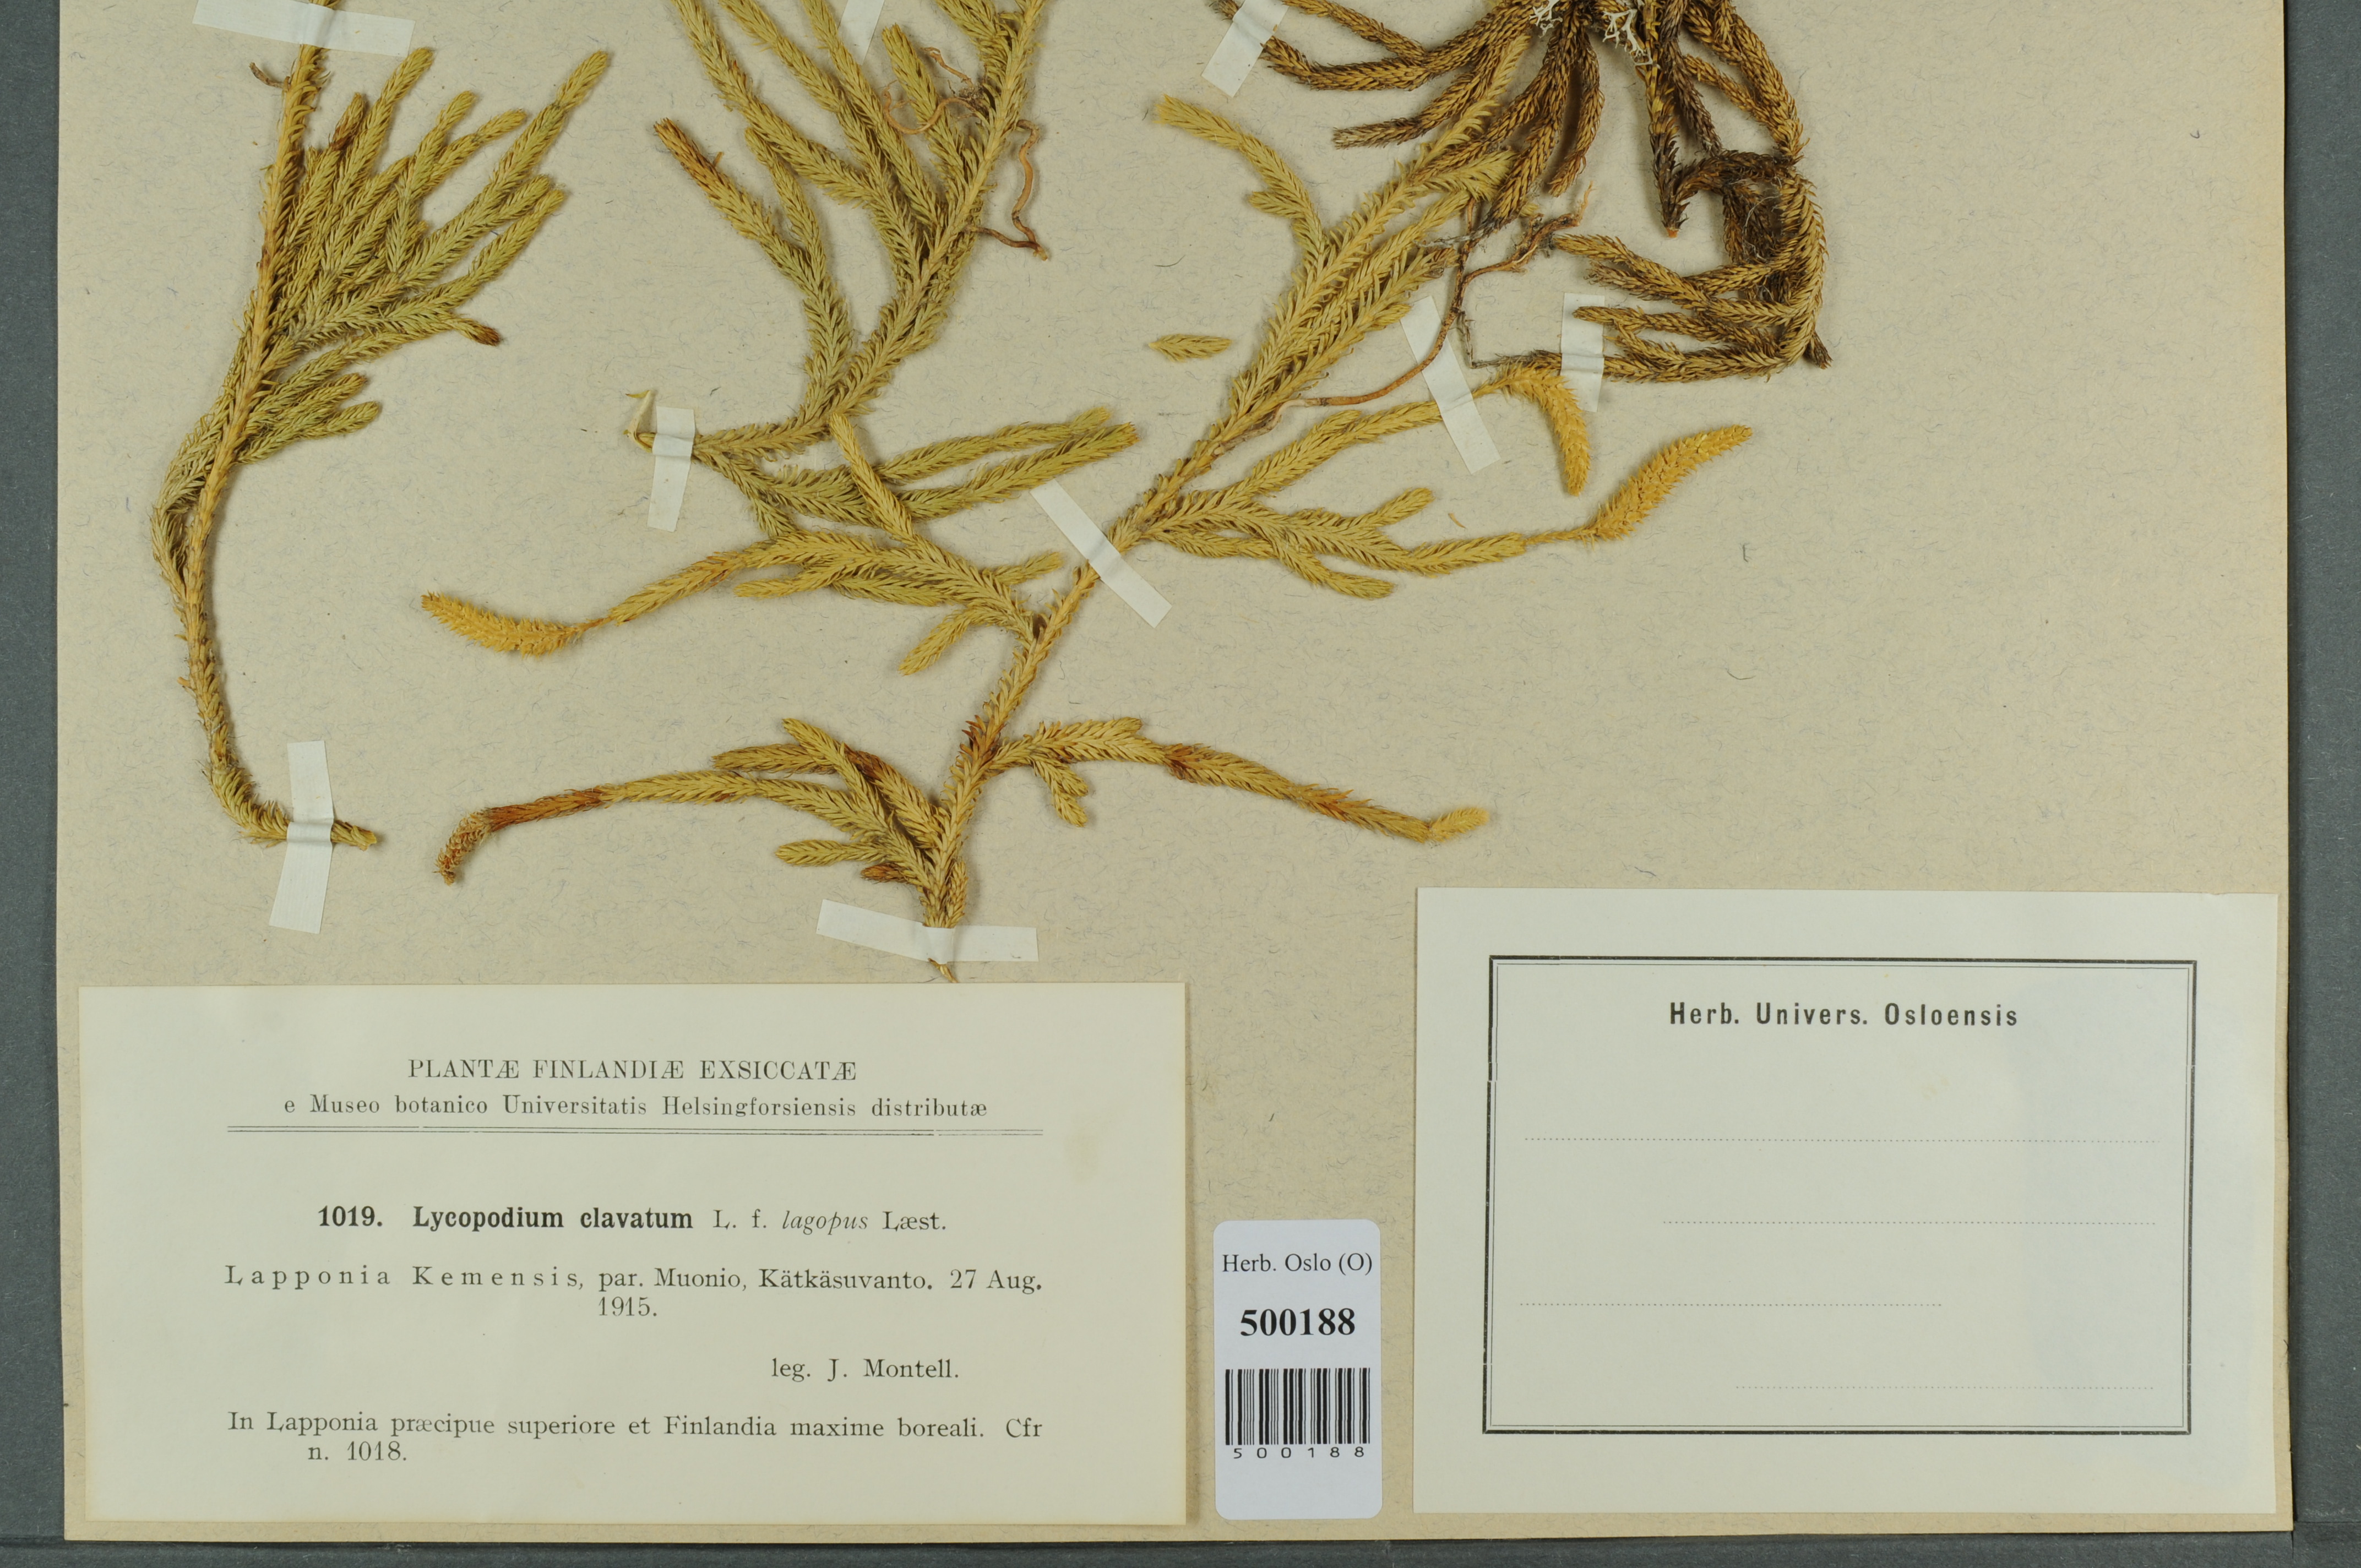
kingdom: Plantae
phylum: Tracheophyta
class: Lycopodiopsida
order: Lycopodiales
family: Lycopodiaceae
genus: Lycopodium
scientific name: Lycopodium lagopus
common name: One-cone clubmoss
